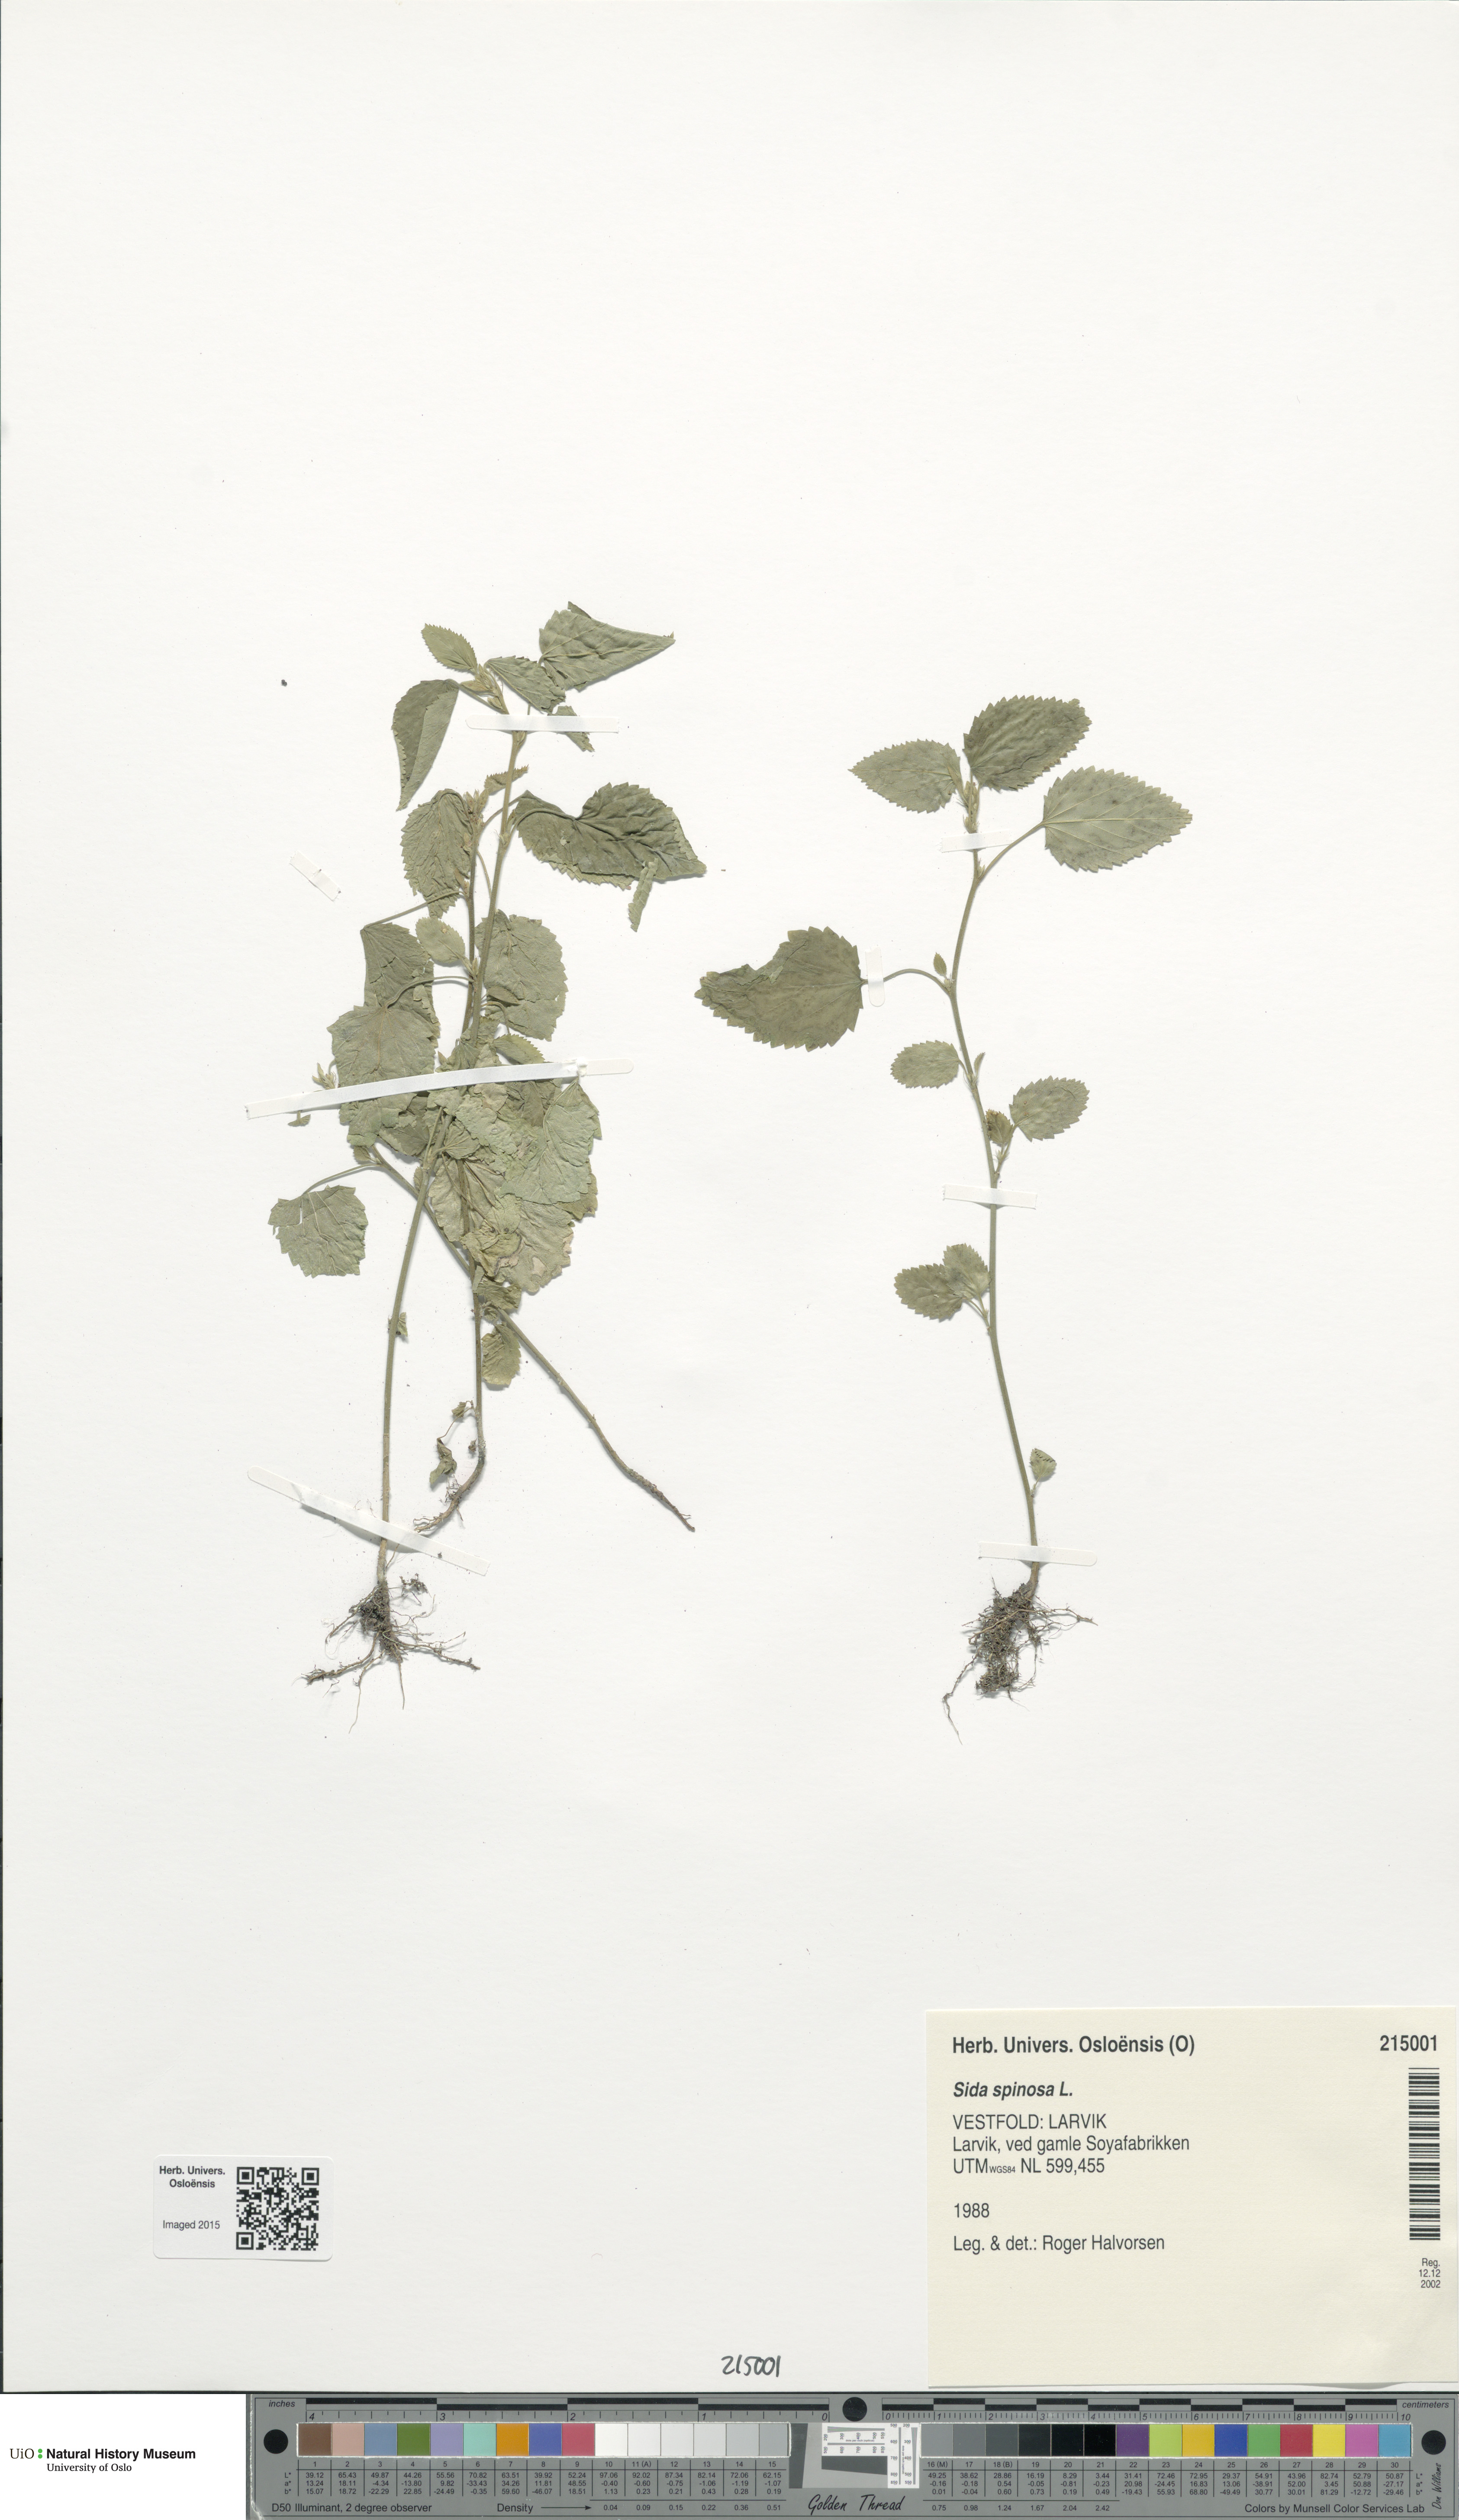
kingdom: Plantae
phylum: Tracheophyta
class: Magnoliopsida
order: Malvales
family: Malvaceae
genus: Sida
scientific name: Sida spinosa
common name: Prickly fanpetals
